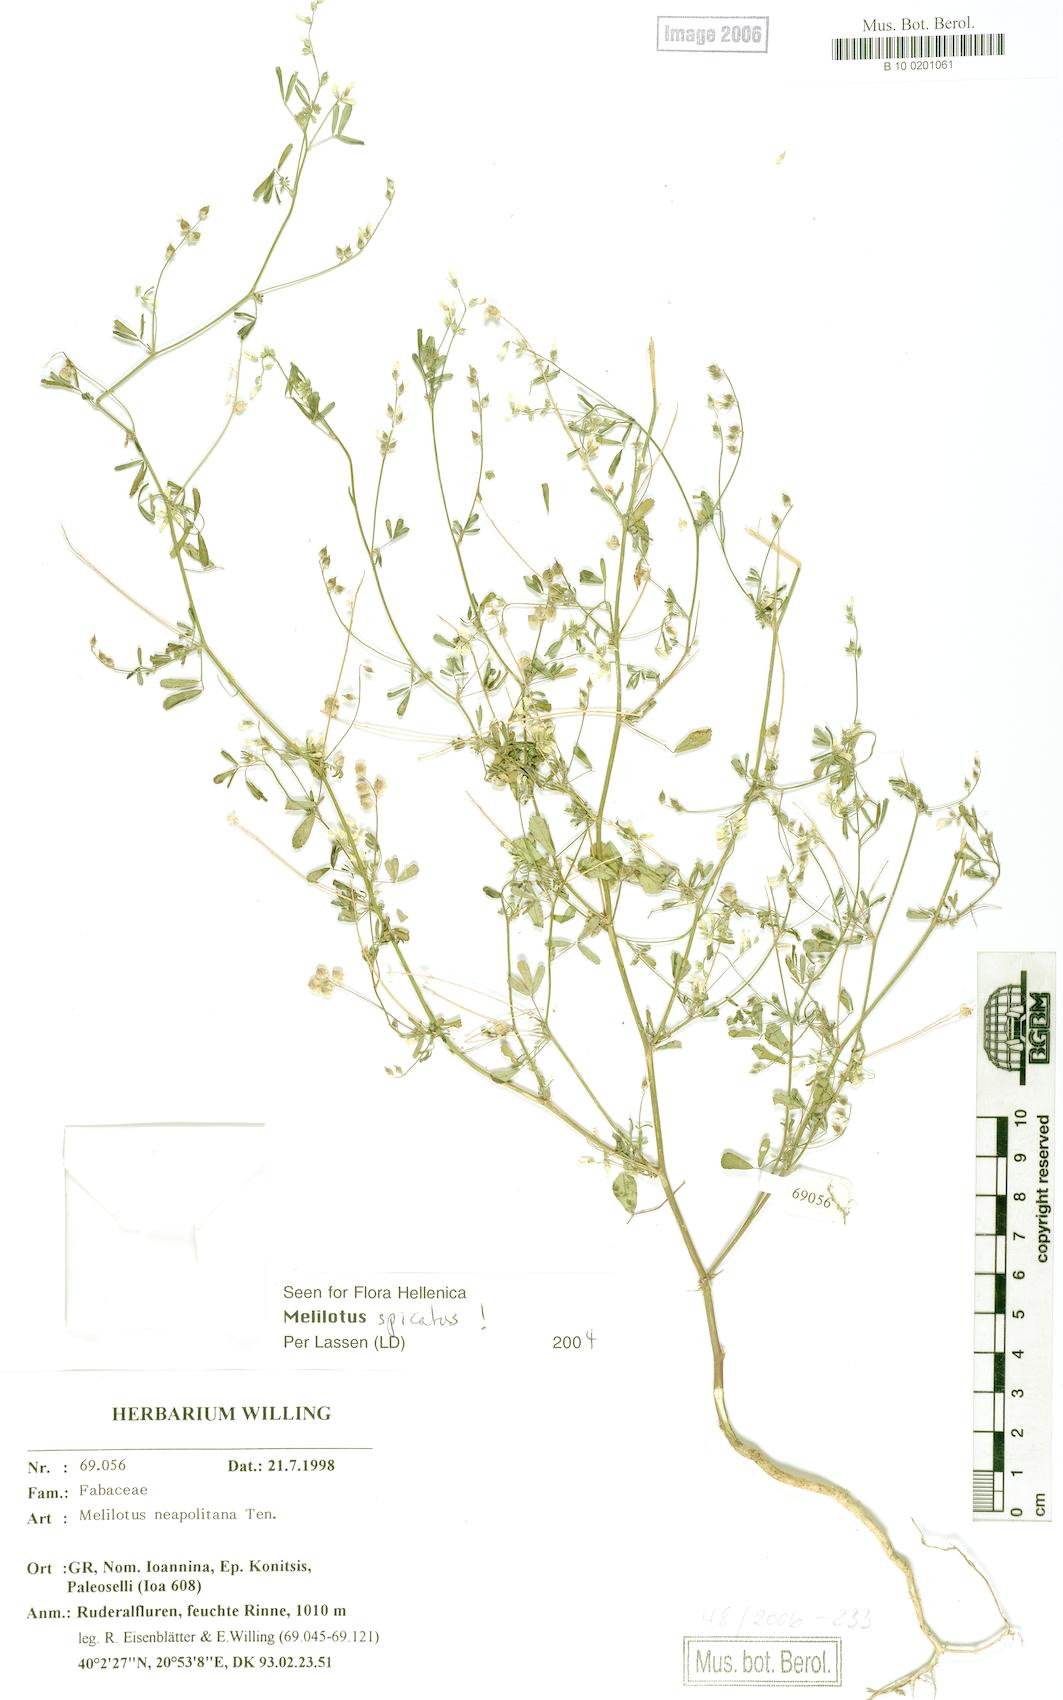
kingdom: Plantae
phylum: Tracheophyta
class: Magnoliopsida
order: Fabales
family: Fabaceae
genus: Melilotus
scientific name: Melilotus neapolitanus
